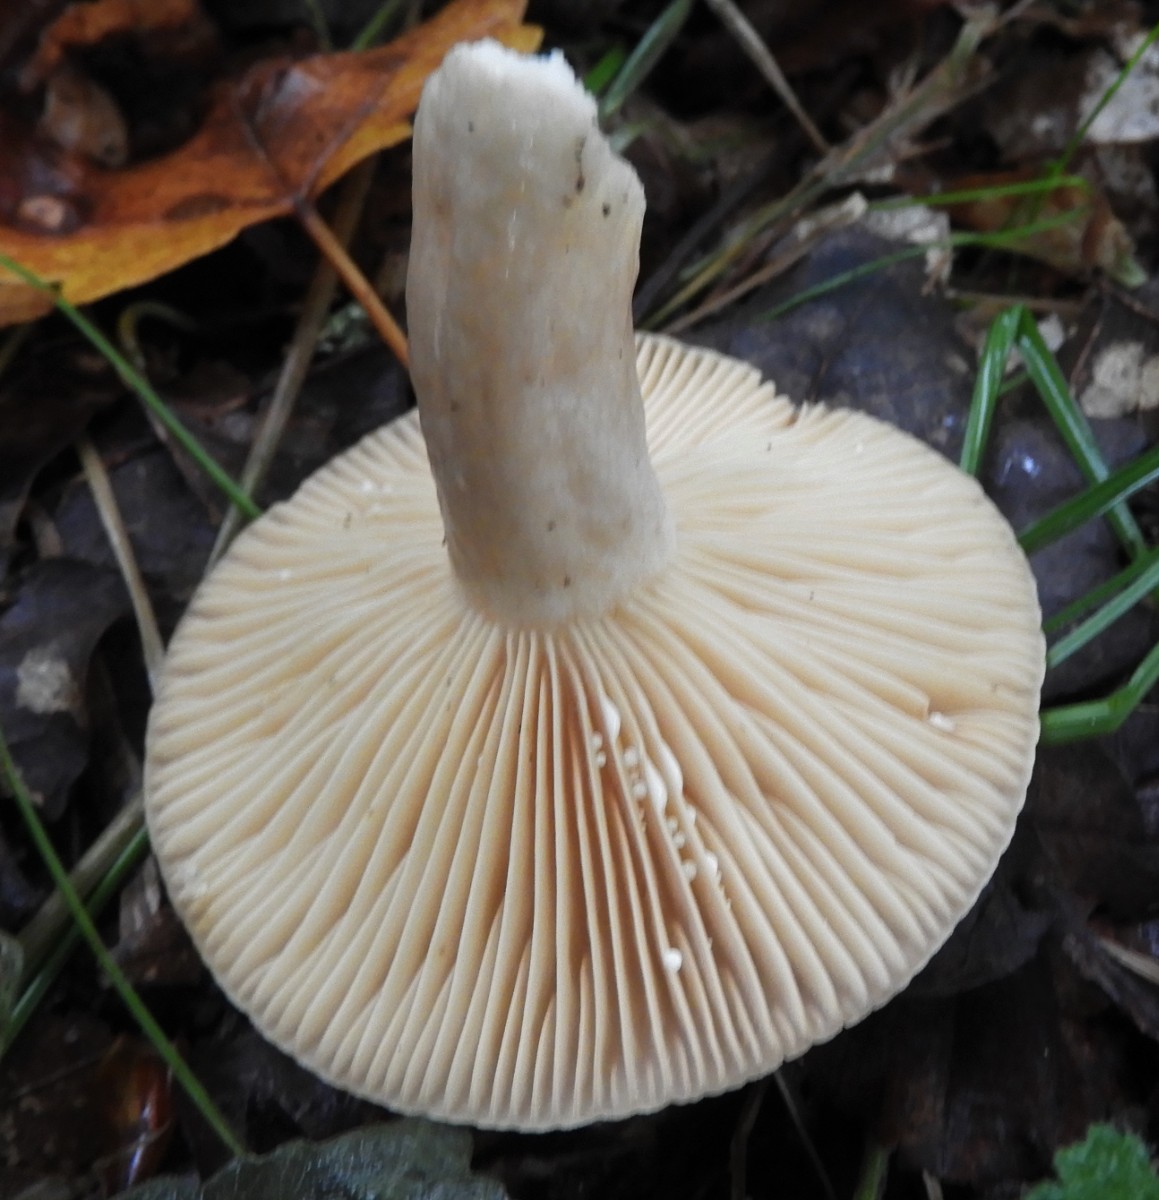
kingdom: Fungi
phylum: Basidiomycota
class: Agaricomycetes
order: Russulales
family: Russulaceae
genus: Lactarius
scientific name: Lactarius
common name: mælkehat
